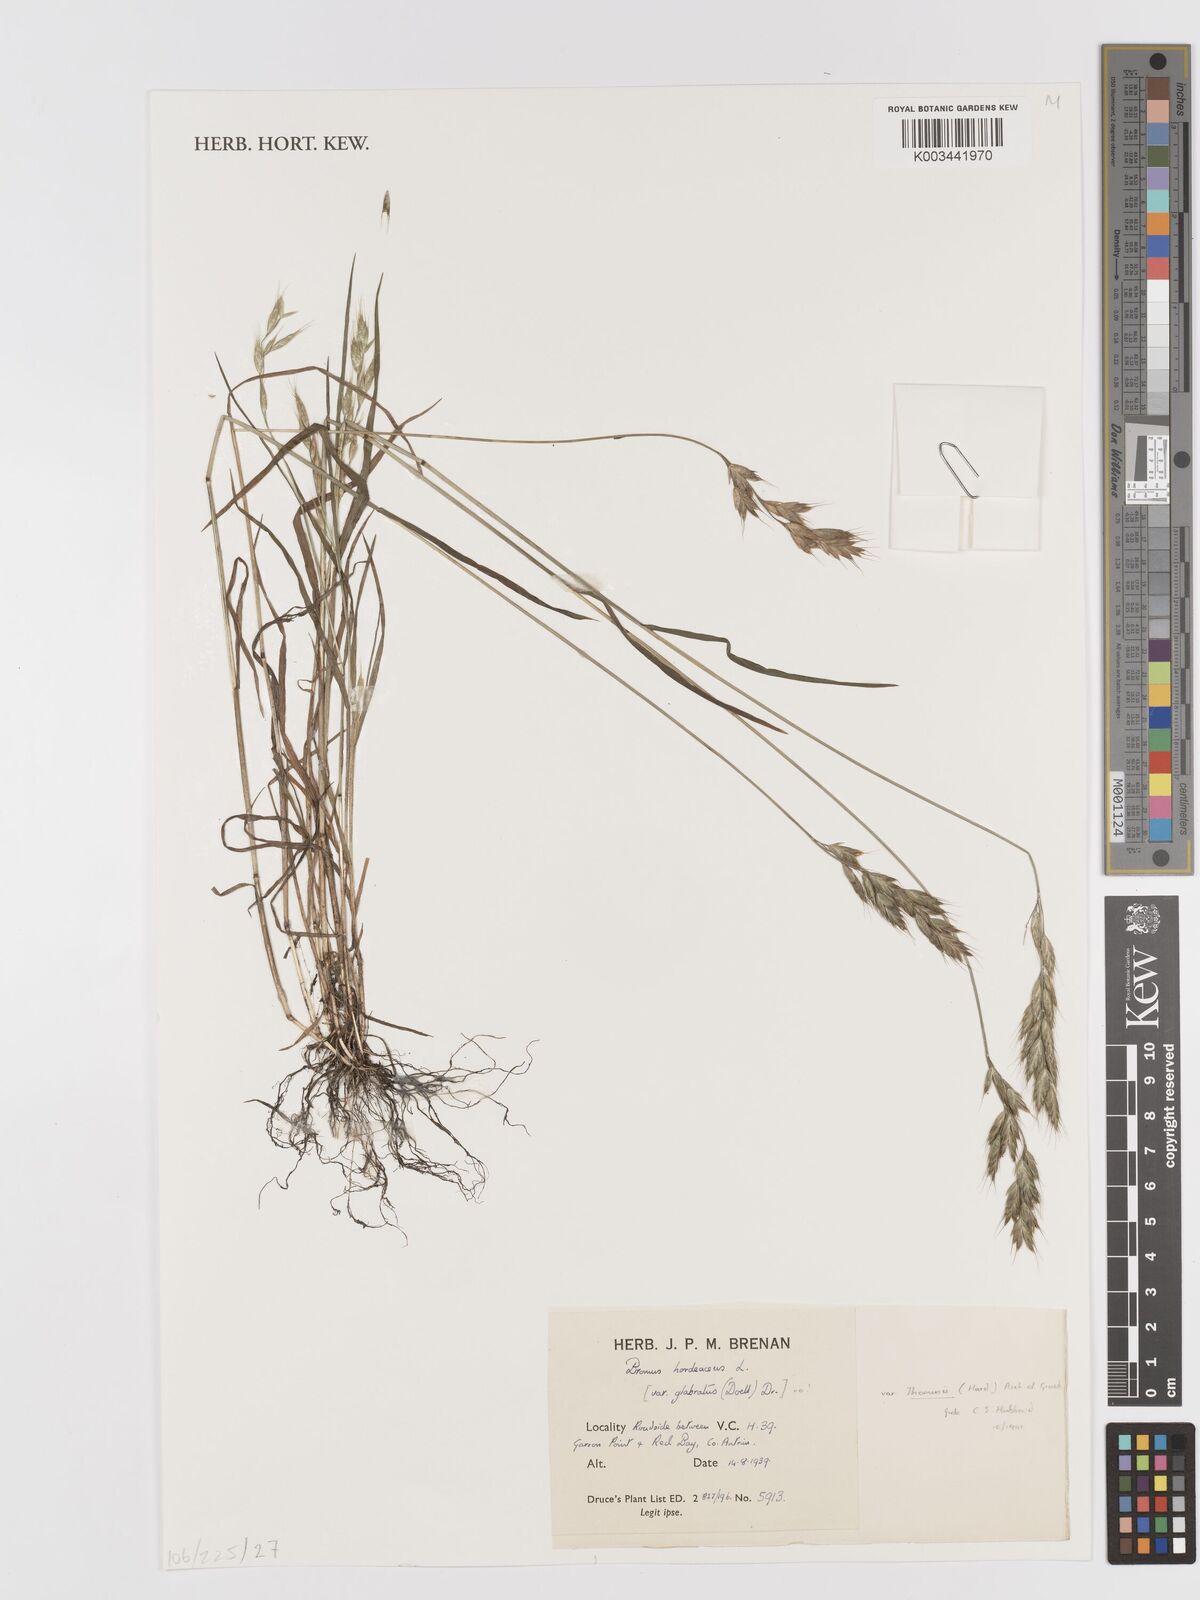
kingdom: Plantae
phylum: Tracheophyta
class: Liliopsida
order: Poales
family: Poaceae
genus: Bromus
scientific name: Bromus hordeaceus
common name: Soft brome
